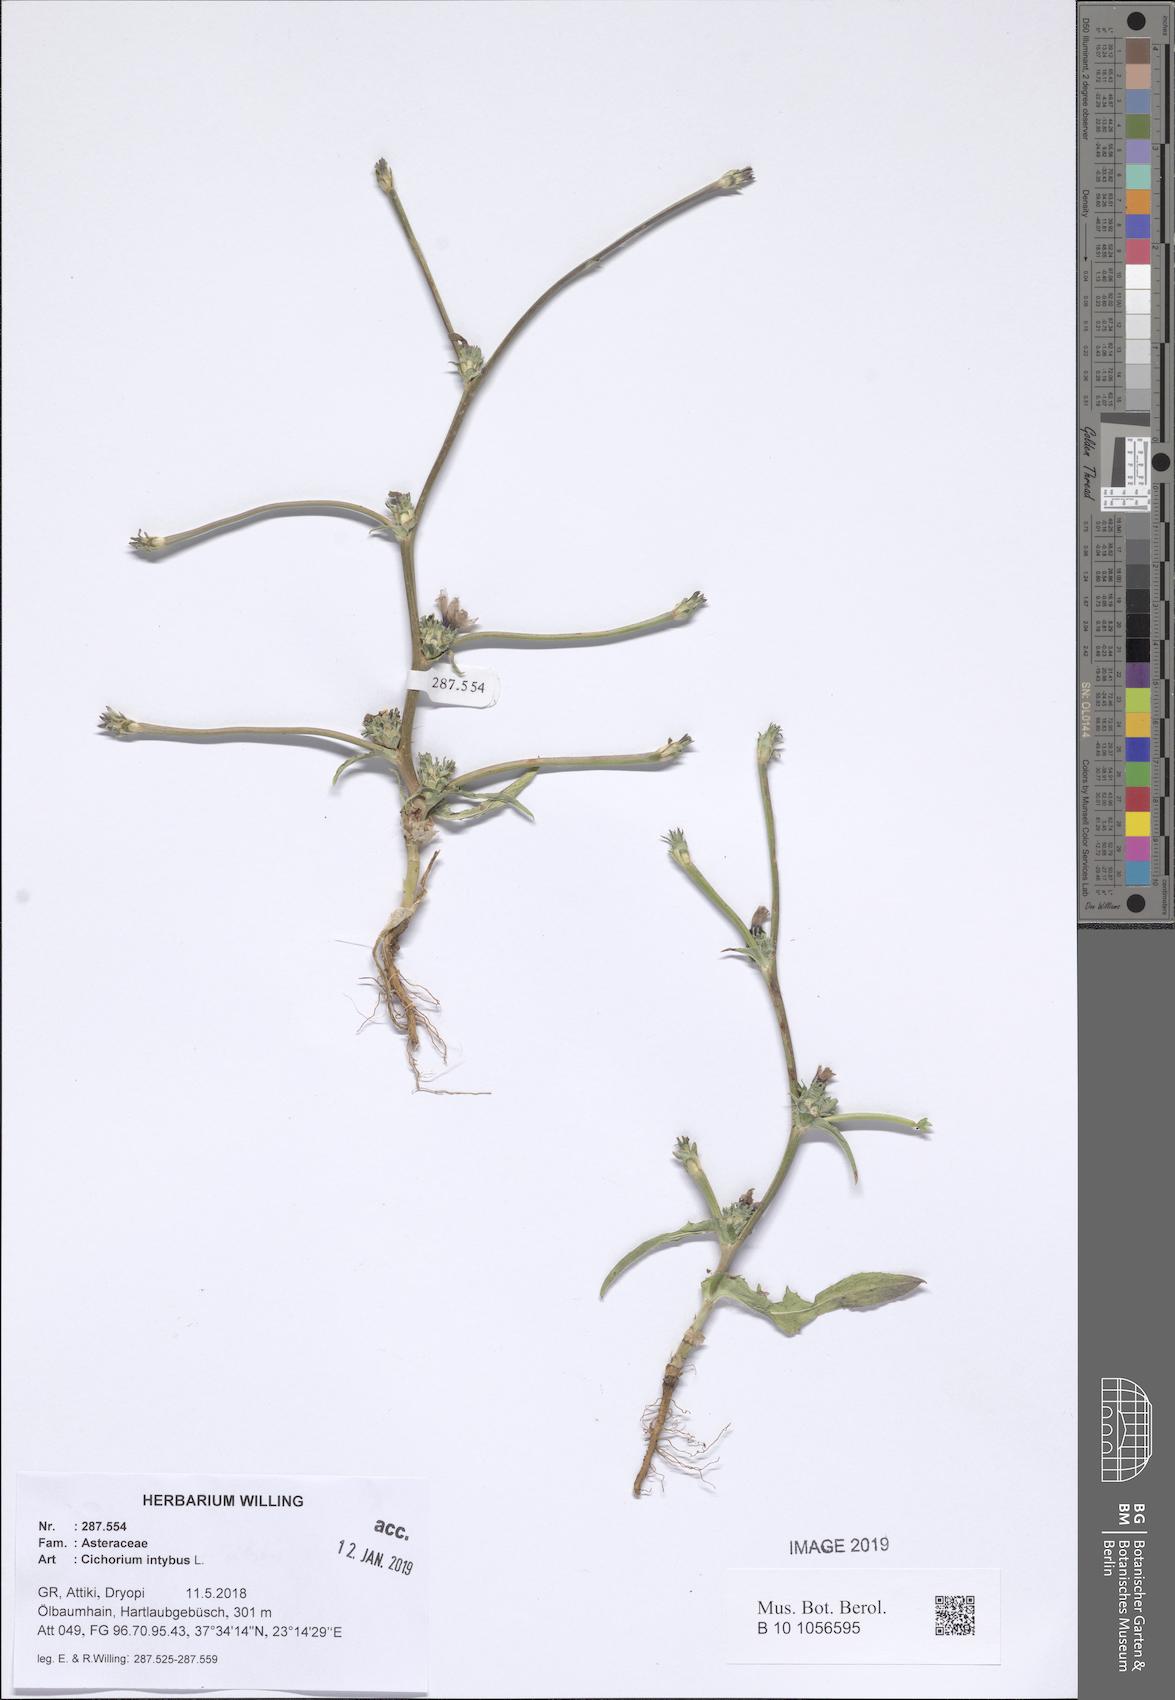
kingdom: Plantae
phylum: Tracheophyta
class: Magnoliopsida
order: Asterales
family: Asteraceae
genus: Cichorium
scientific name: Cichorium intybus
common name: Chicory
